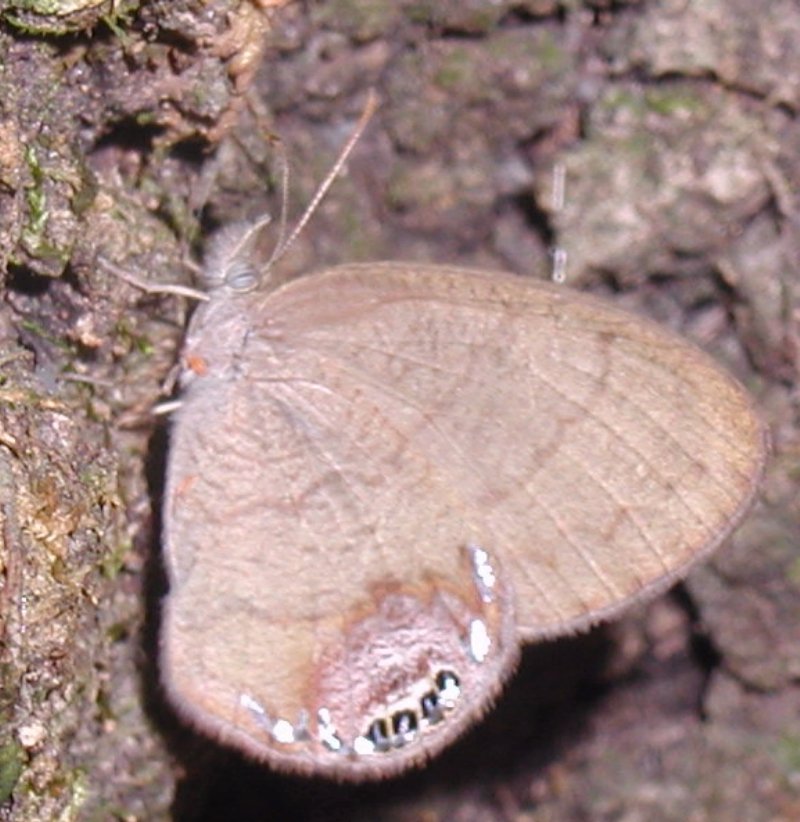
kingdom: Animalia
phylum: Arthropoda
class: Insecta
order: Lepidoptera
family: Nymphalidae
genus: Euptychia
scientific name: Euptychia cornelius
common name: Gemmed Satyr
